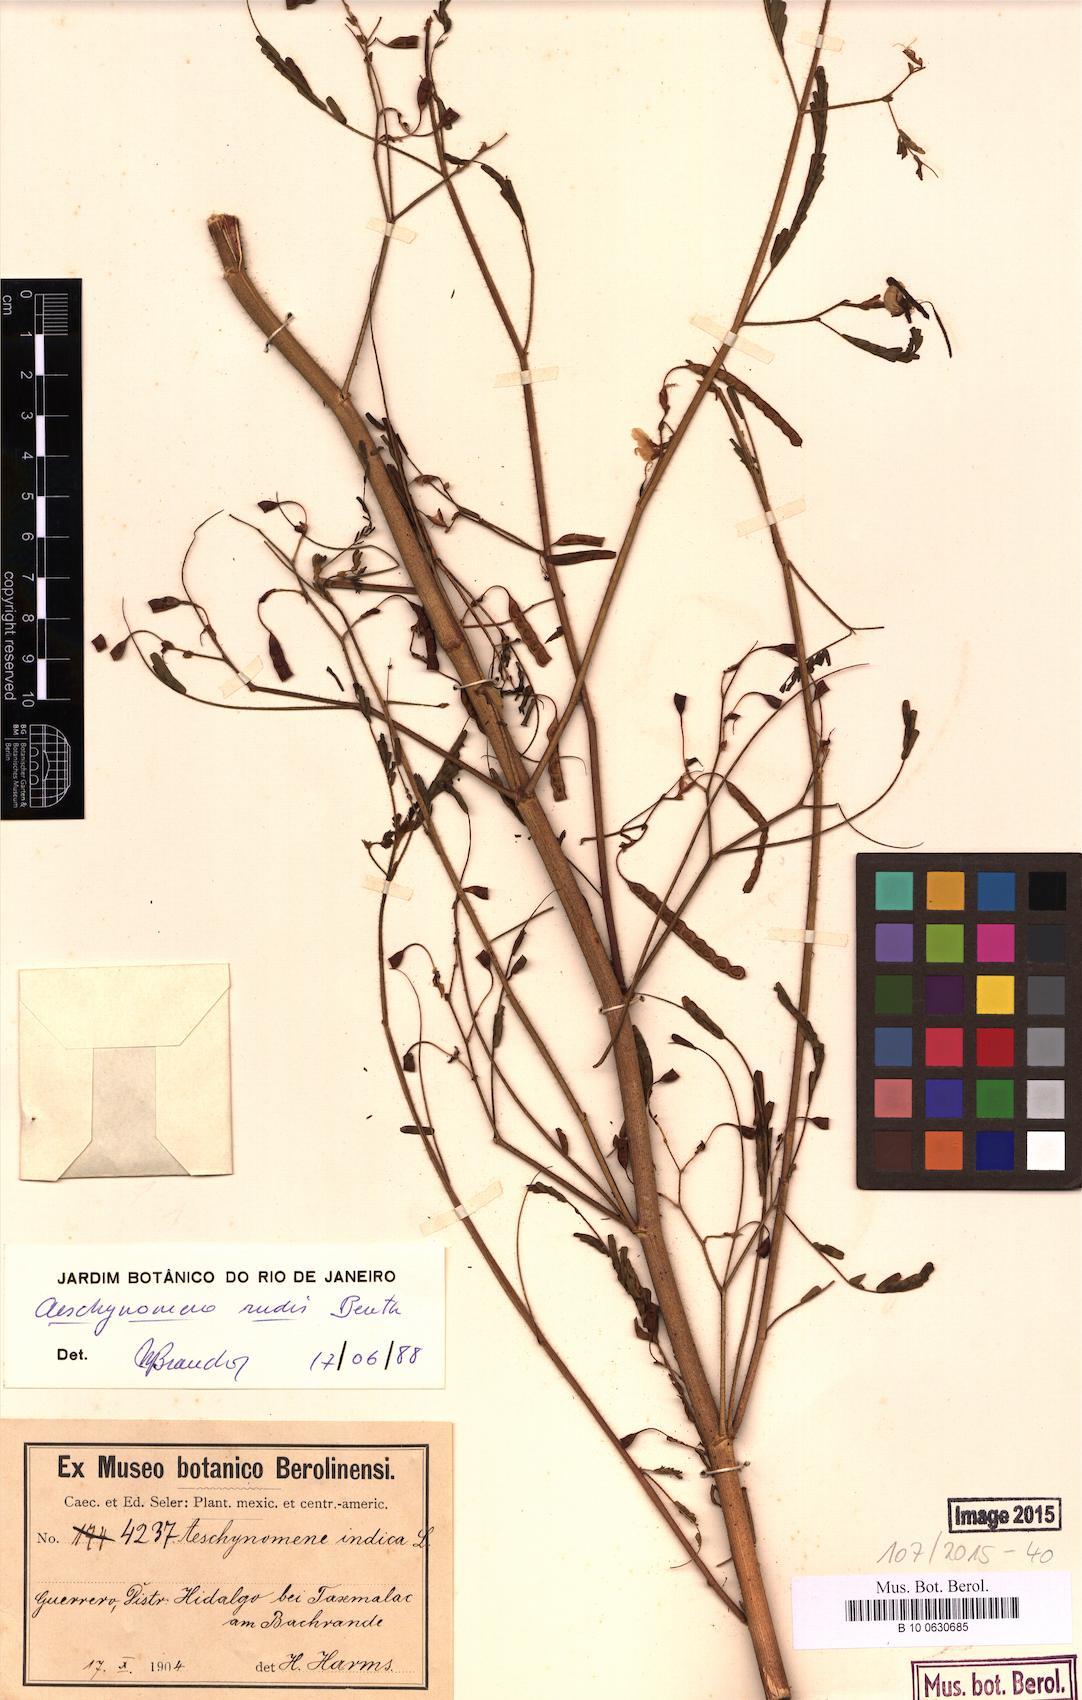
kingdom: Plantae
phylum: Tracheophyta
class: Magnoliopsida
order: Fabales
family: Fabaceae
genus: Aeschynomene
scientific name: Aeschynomene rudis
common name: Rough joint-vetch
